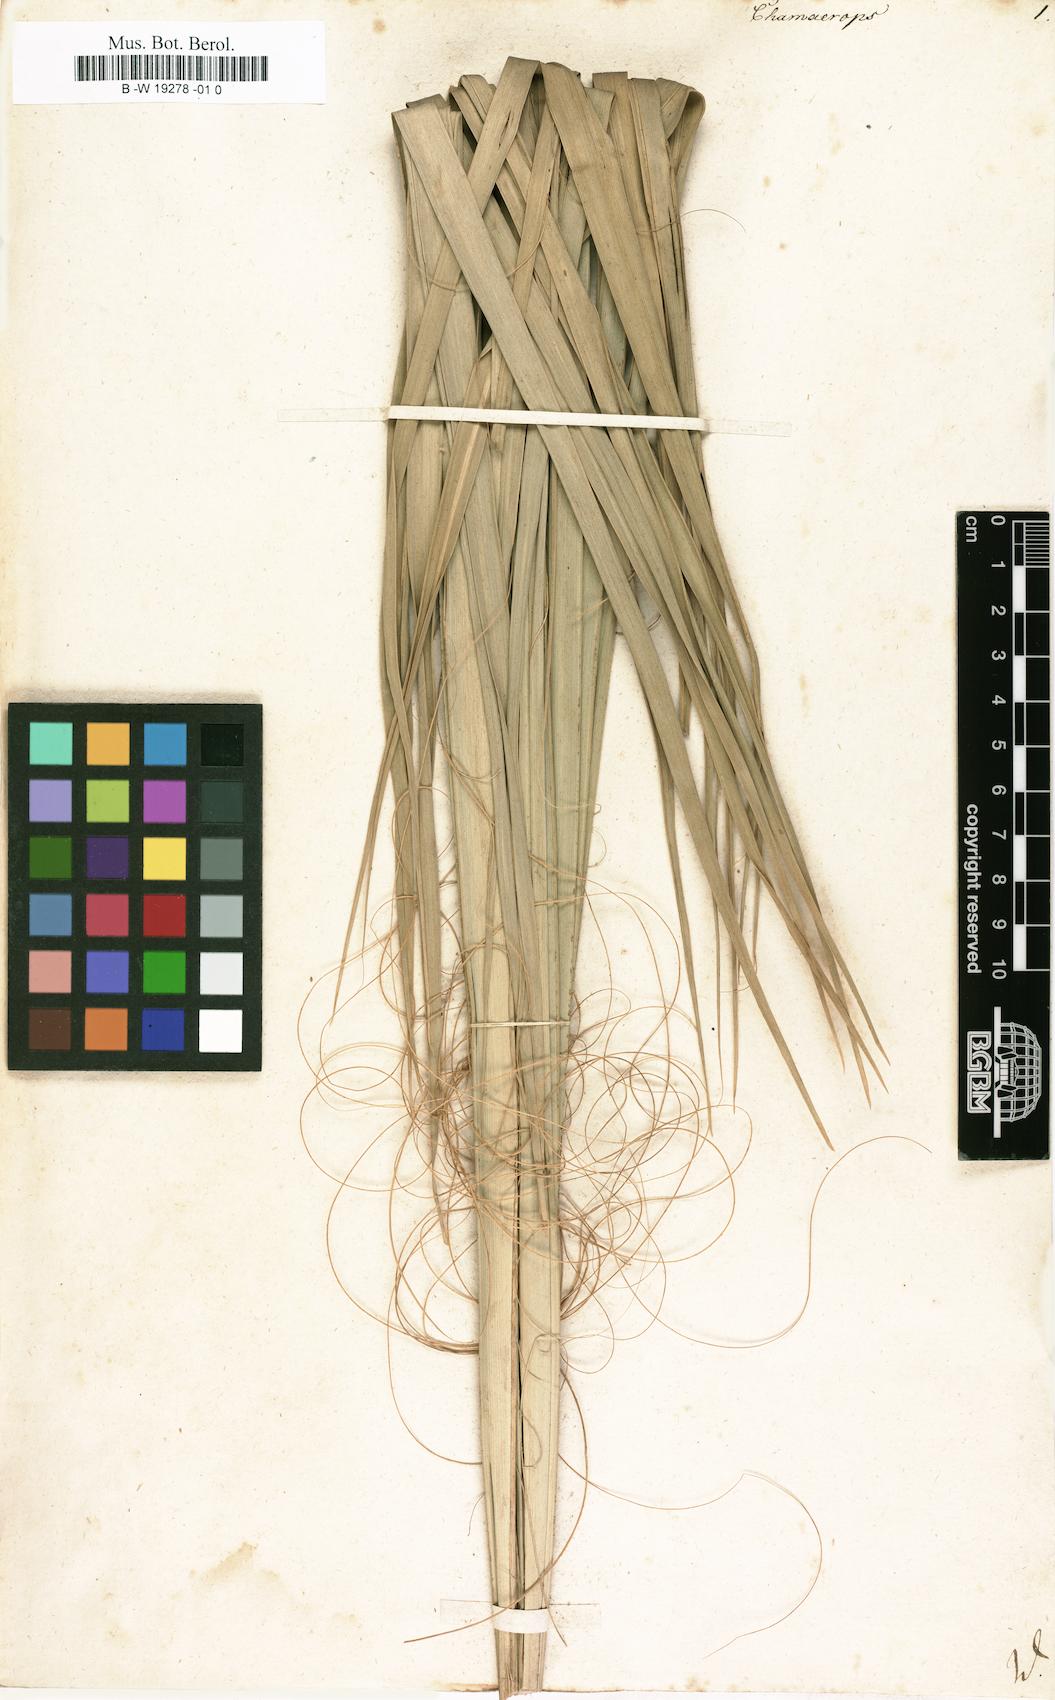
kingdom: Plantae
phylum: Tracheophyta
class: Liliopsida
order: Arecales
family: Arecaceae
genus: Chamaerops
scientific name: Chamaerops
